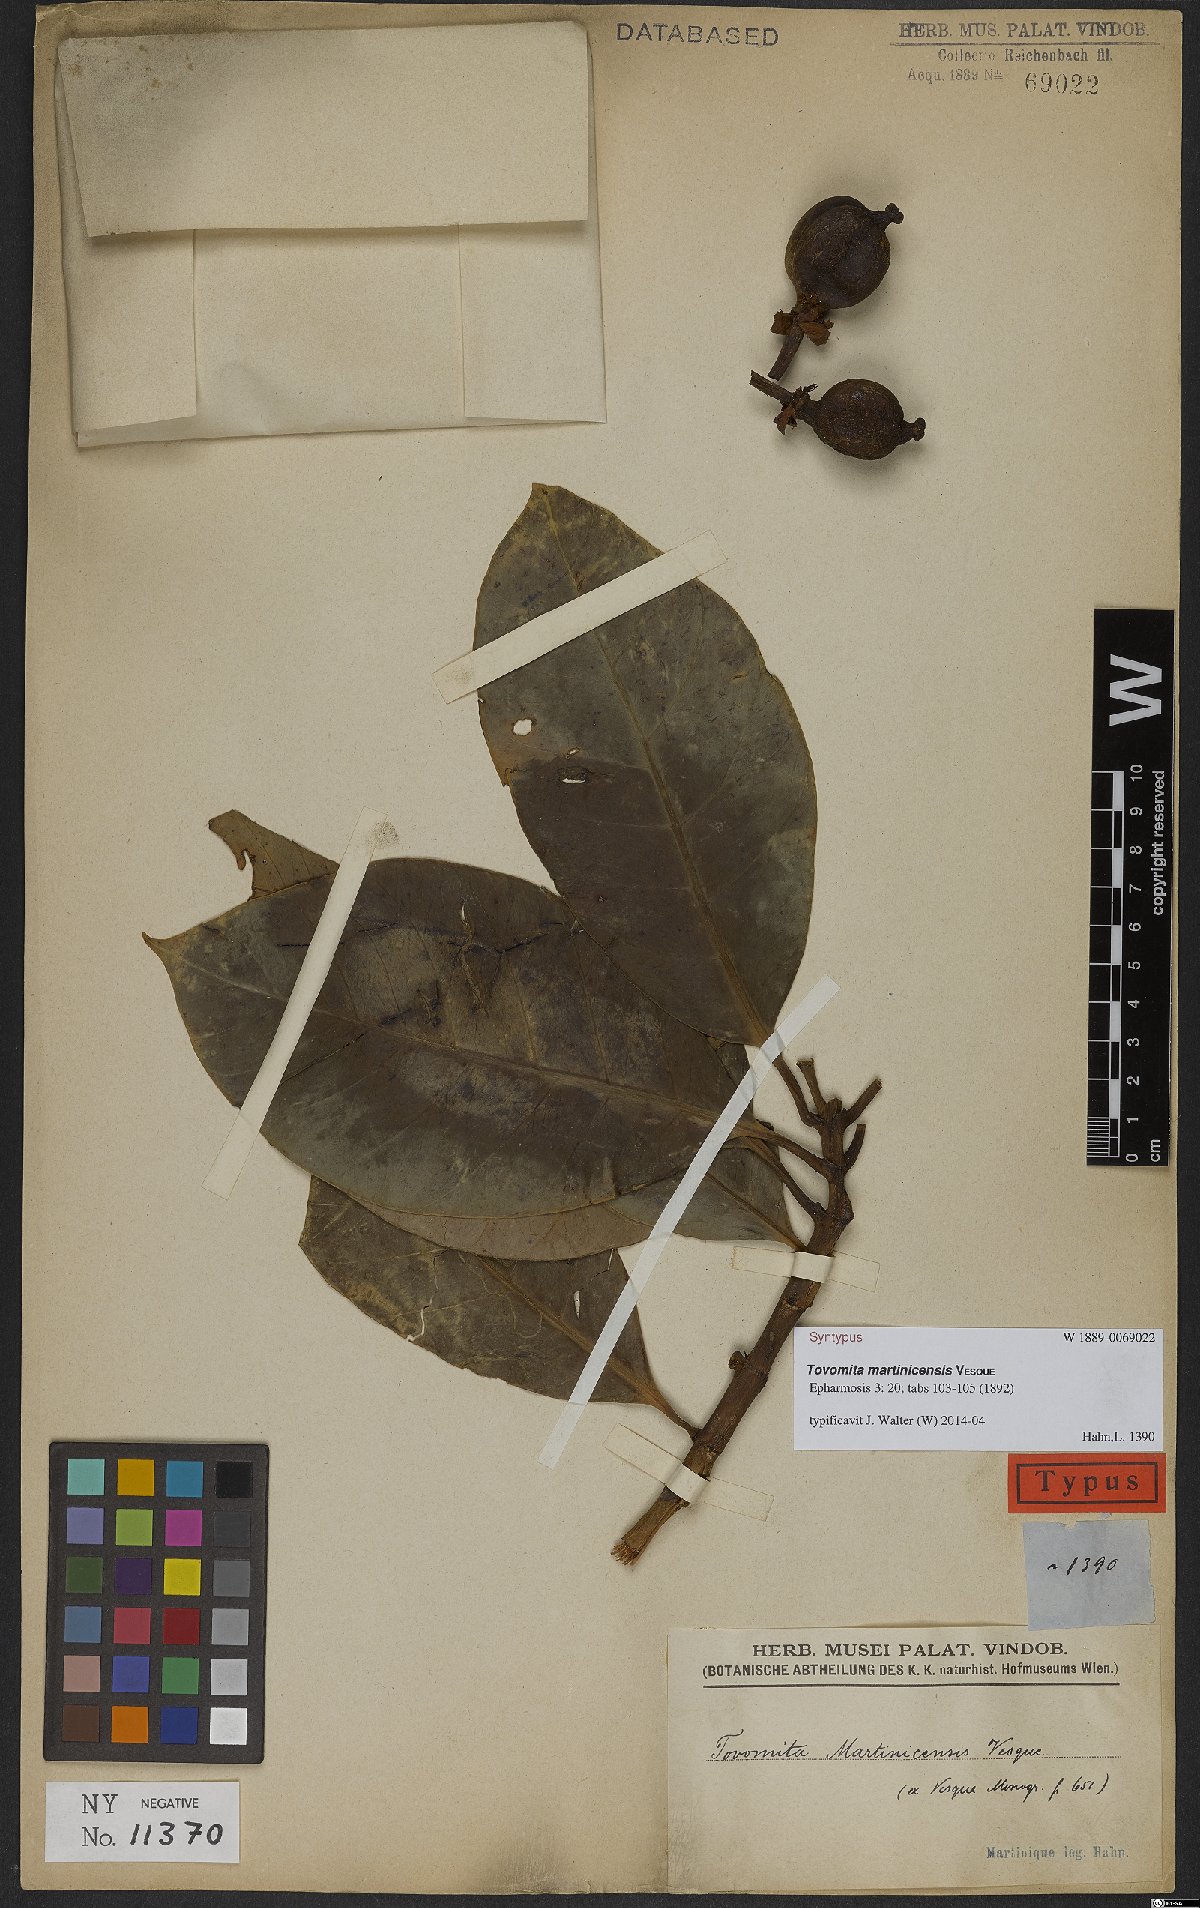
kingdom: Plantae
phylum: Tracheophyta
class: Magnoliopsida
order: Malpighiales
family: Clusiaceae
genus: Tovomita
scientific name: Tovomita plumieri
